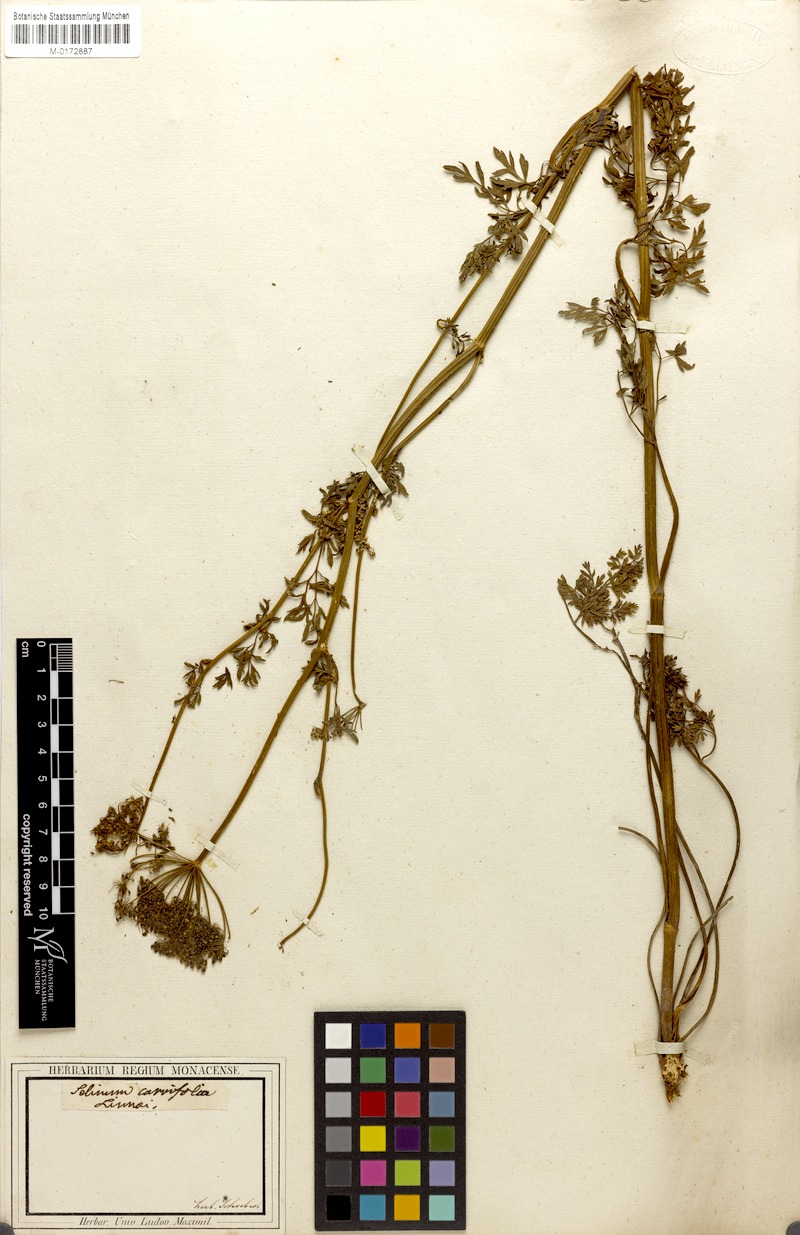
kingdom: Plantae
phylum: Tracheophyta
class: Magnoliopsida
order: Apiales
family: Apiaceae
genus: Selinum
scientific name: Selinum carvifolia
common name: Cambridge milk-parsley
